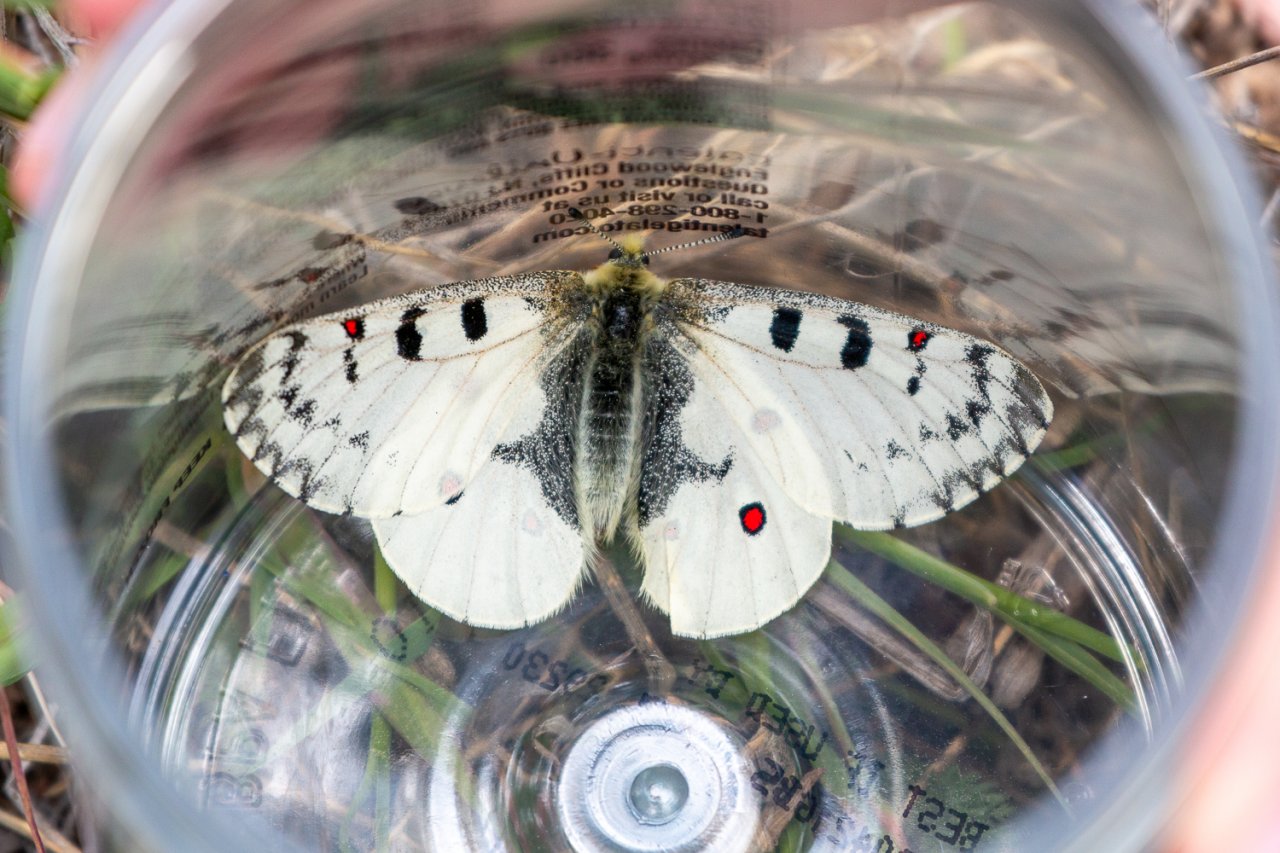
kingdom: Animalia
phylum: Arthropoda
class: Insecta
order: Lepidoptera
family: Papilionidae
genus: Parnassius
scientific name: Parnassius phoebus
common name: Phoebus Parnassian
